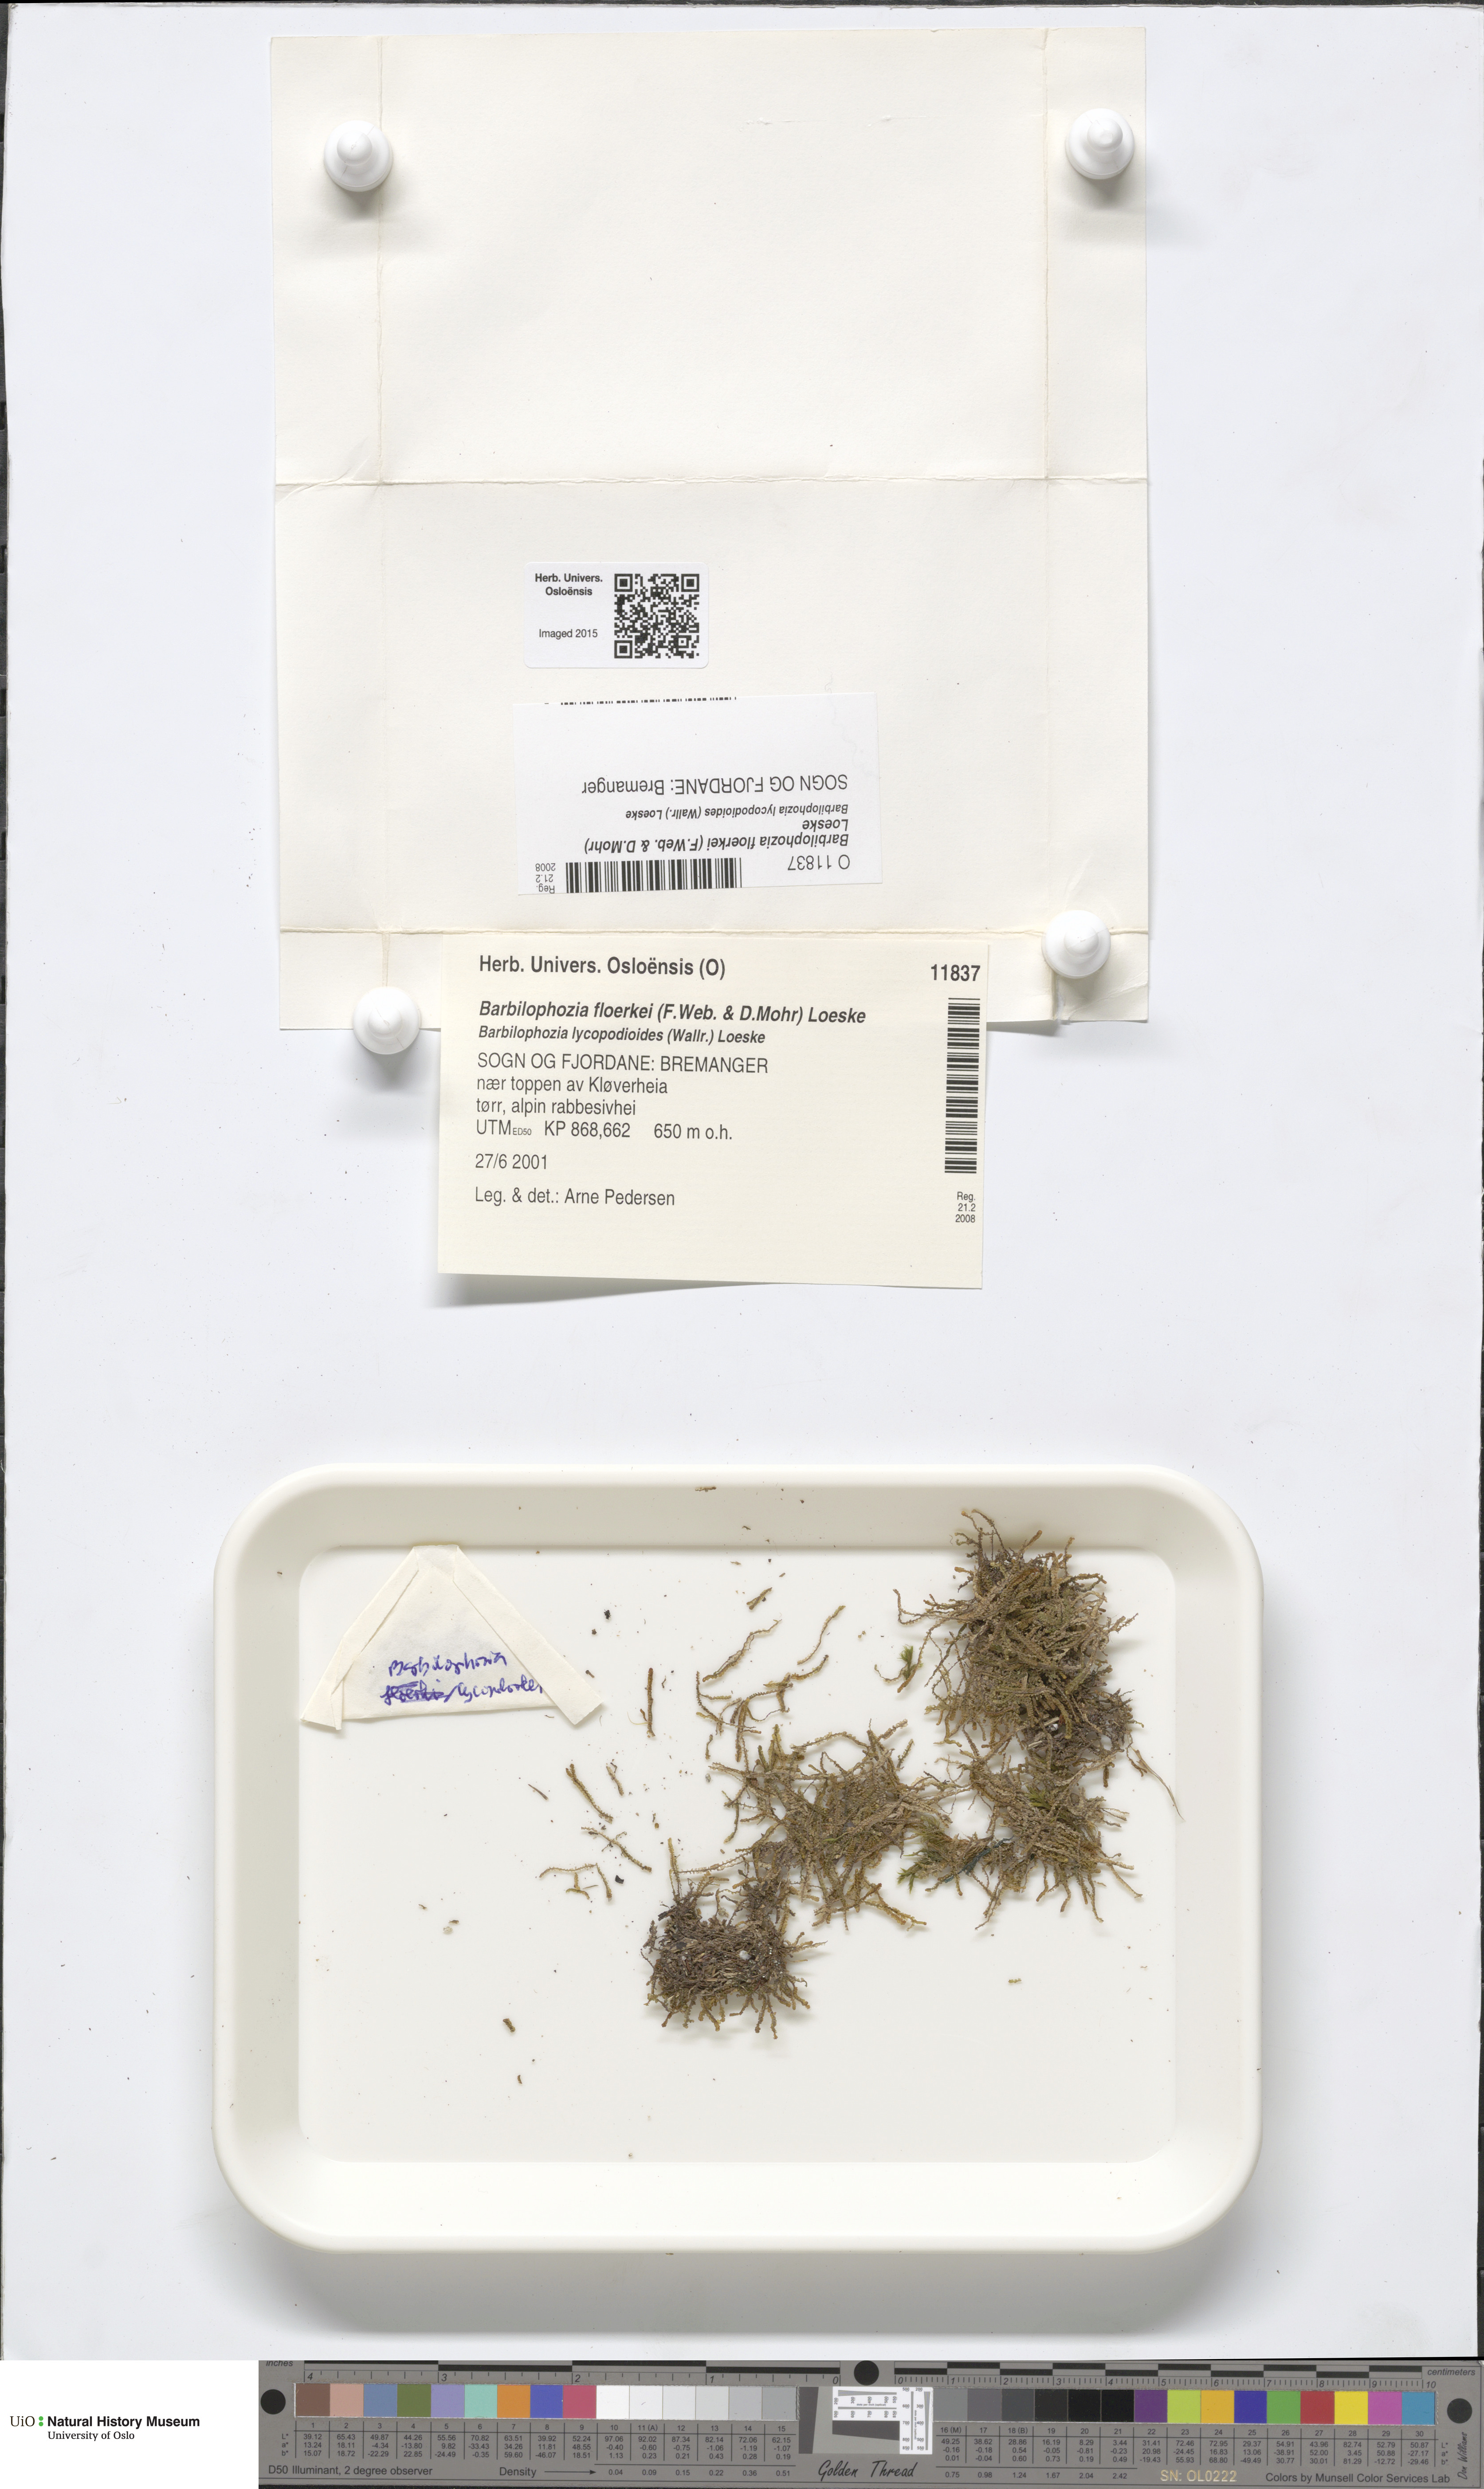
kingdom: Plantae
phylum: Marchantiophyta
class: Jungermanniopsida
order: Jungermanniales
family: Anastrophyllaceae
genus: Neoorthocaulis
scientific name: Neoorthocaulis floerkei
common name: Floerke's barbilophozia
